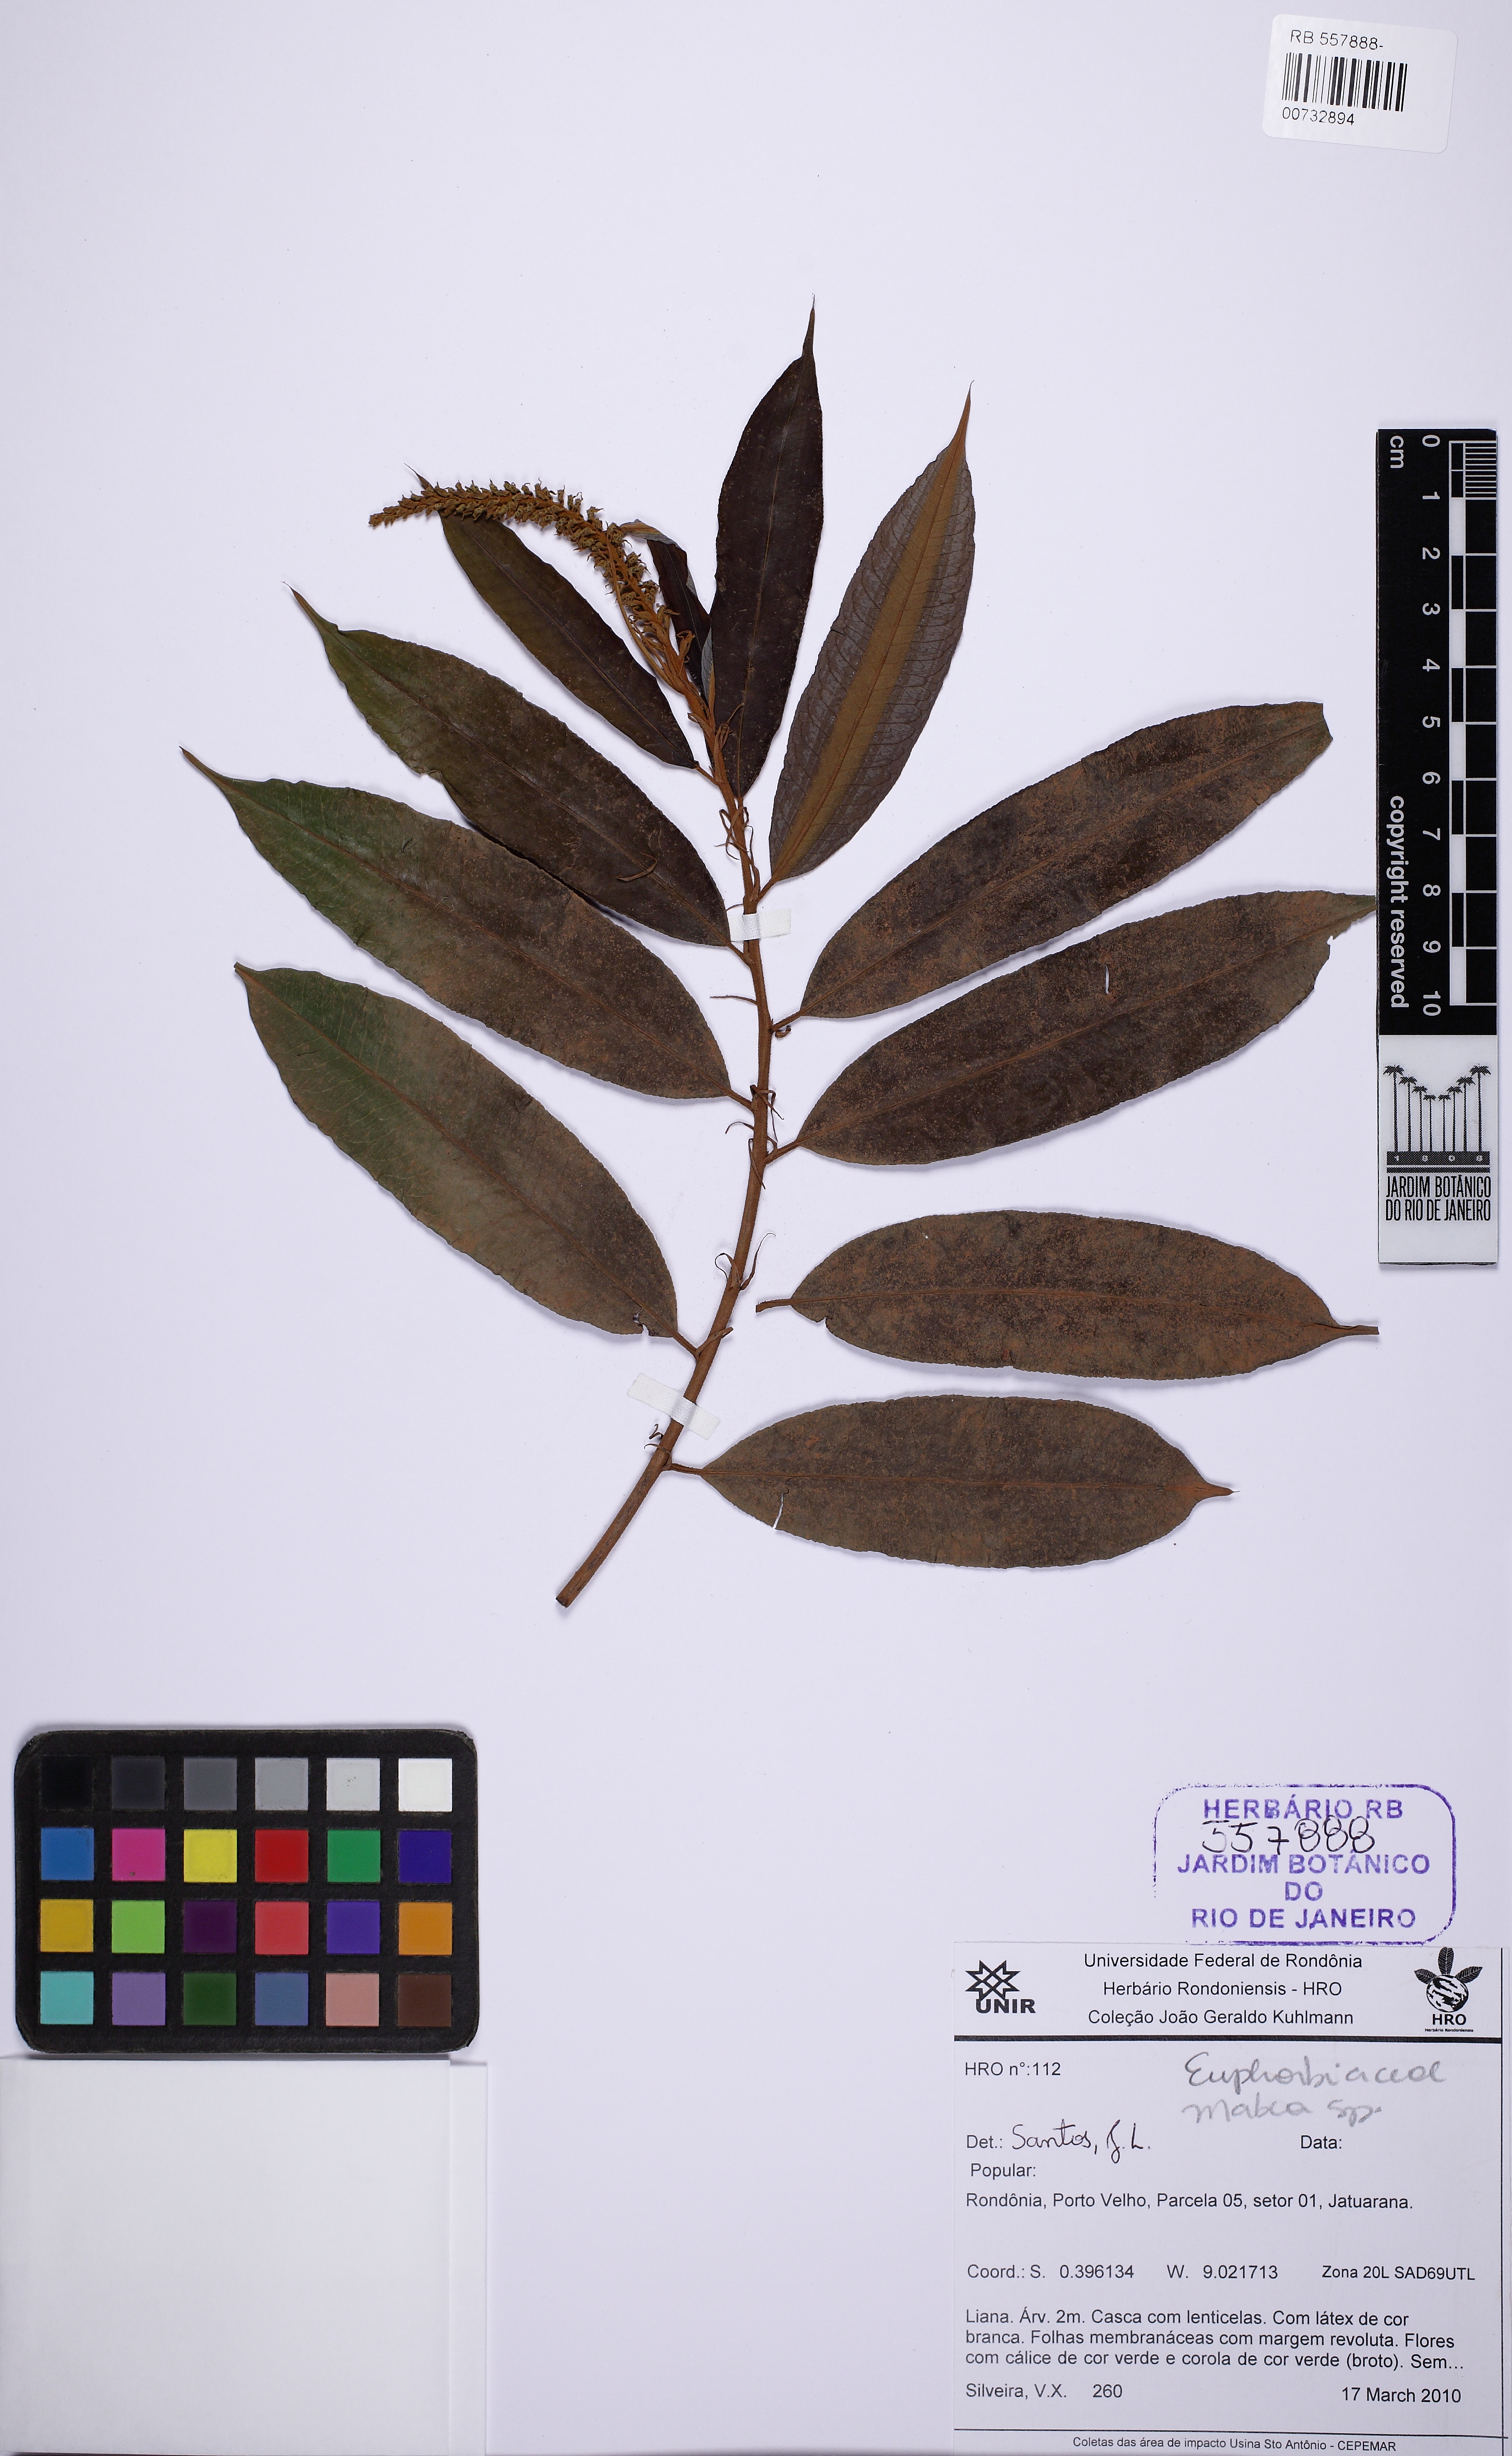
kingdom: Plantae
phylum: Tracheophyta
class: Magnoliopsida
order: Malpighiales
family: Euphorbiaceae
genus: Mabea
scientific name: Mabea fistulifera
